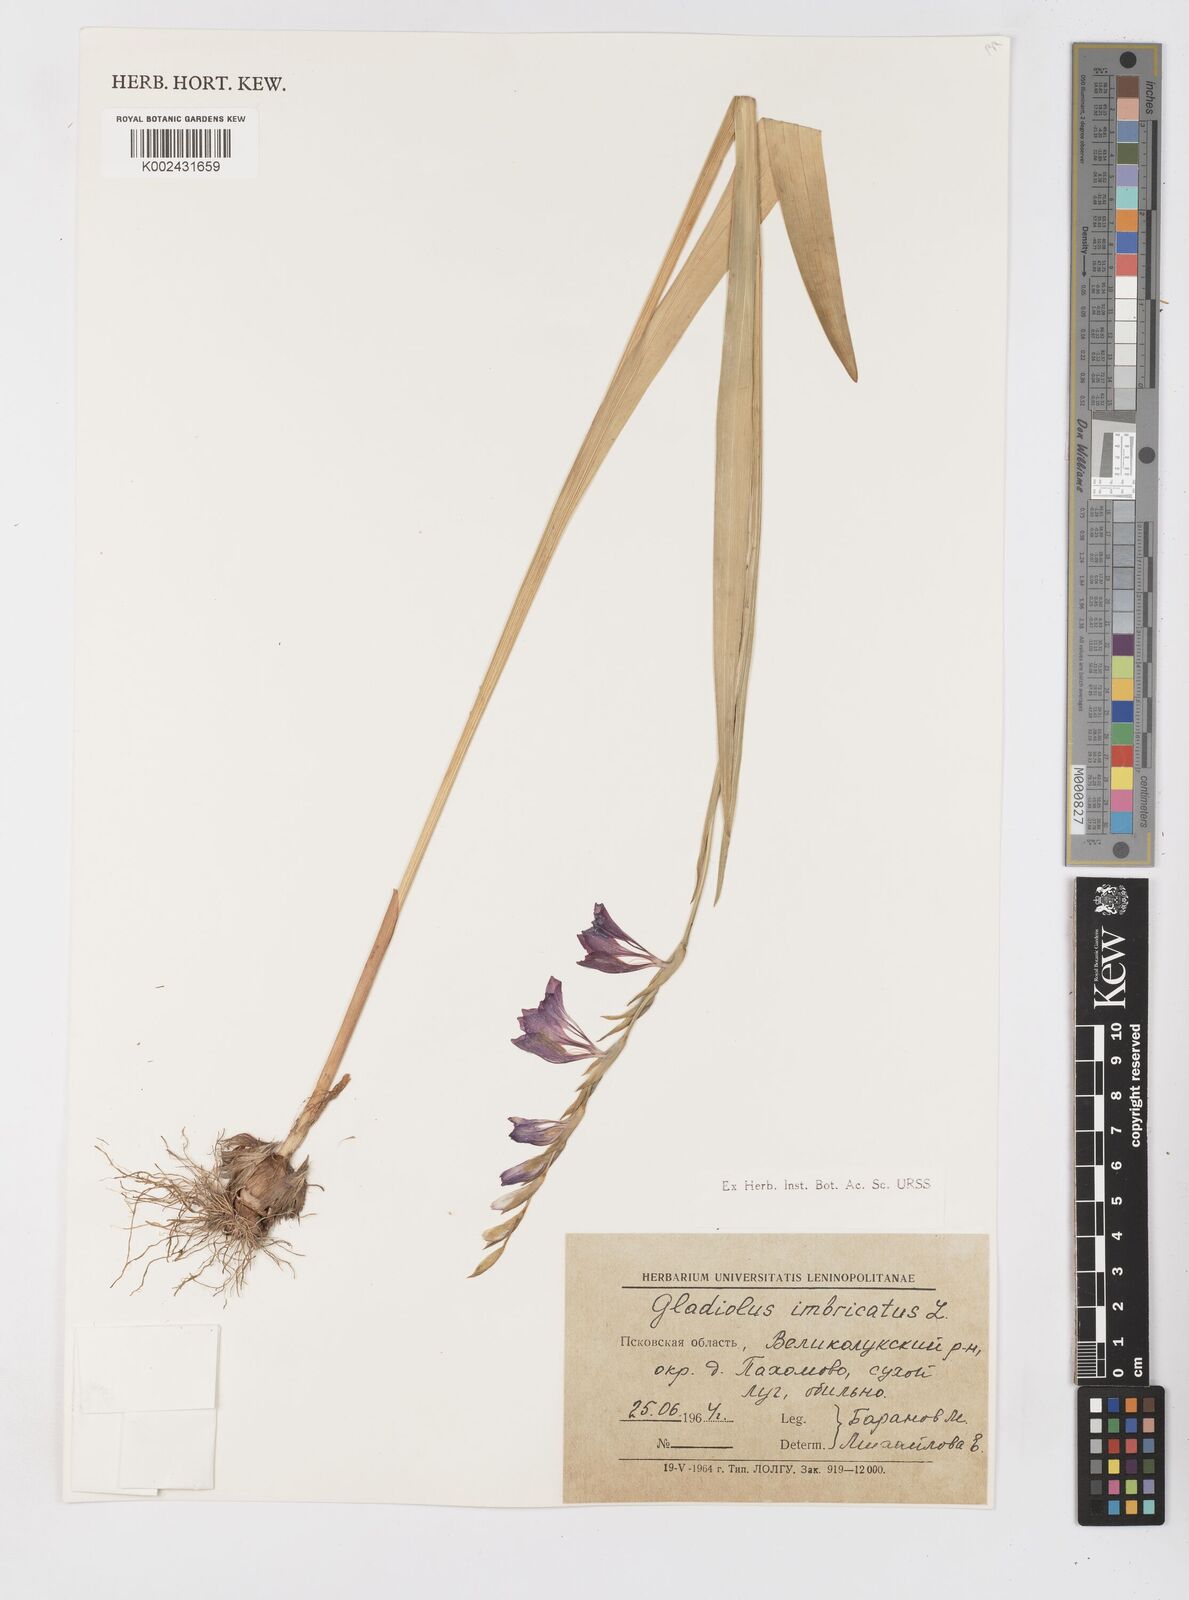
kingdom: Plantae
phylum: Tracheophyta
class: Liliopsida
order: Asparagales
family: Iridaceae
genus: Gladiolus
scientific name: Gladiolus imbricatus
